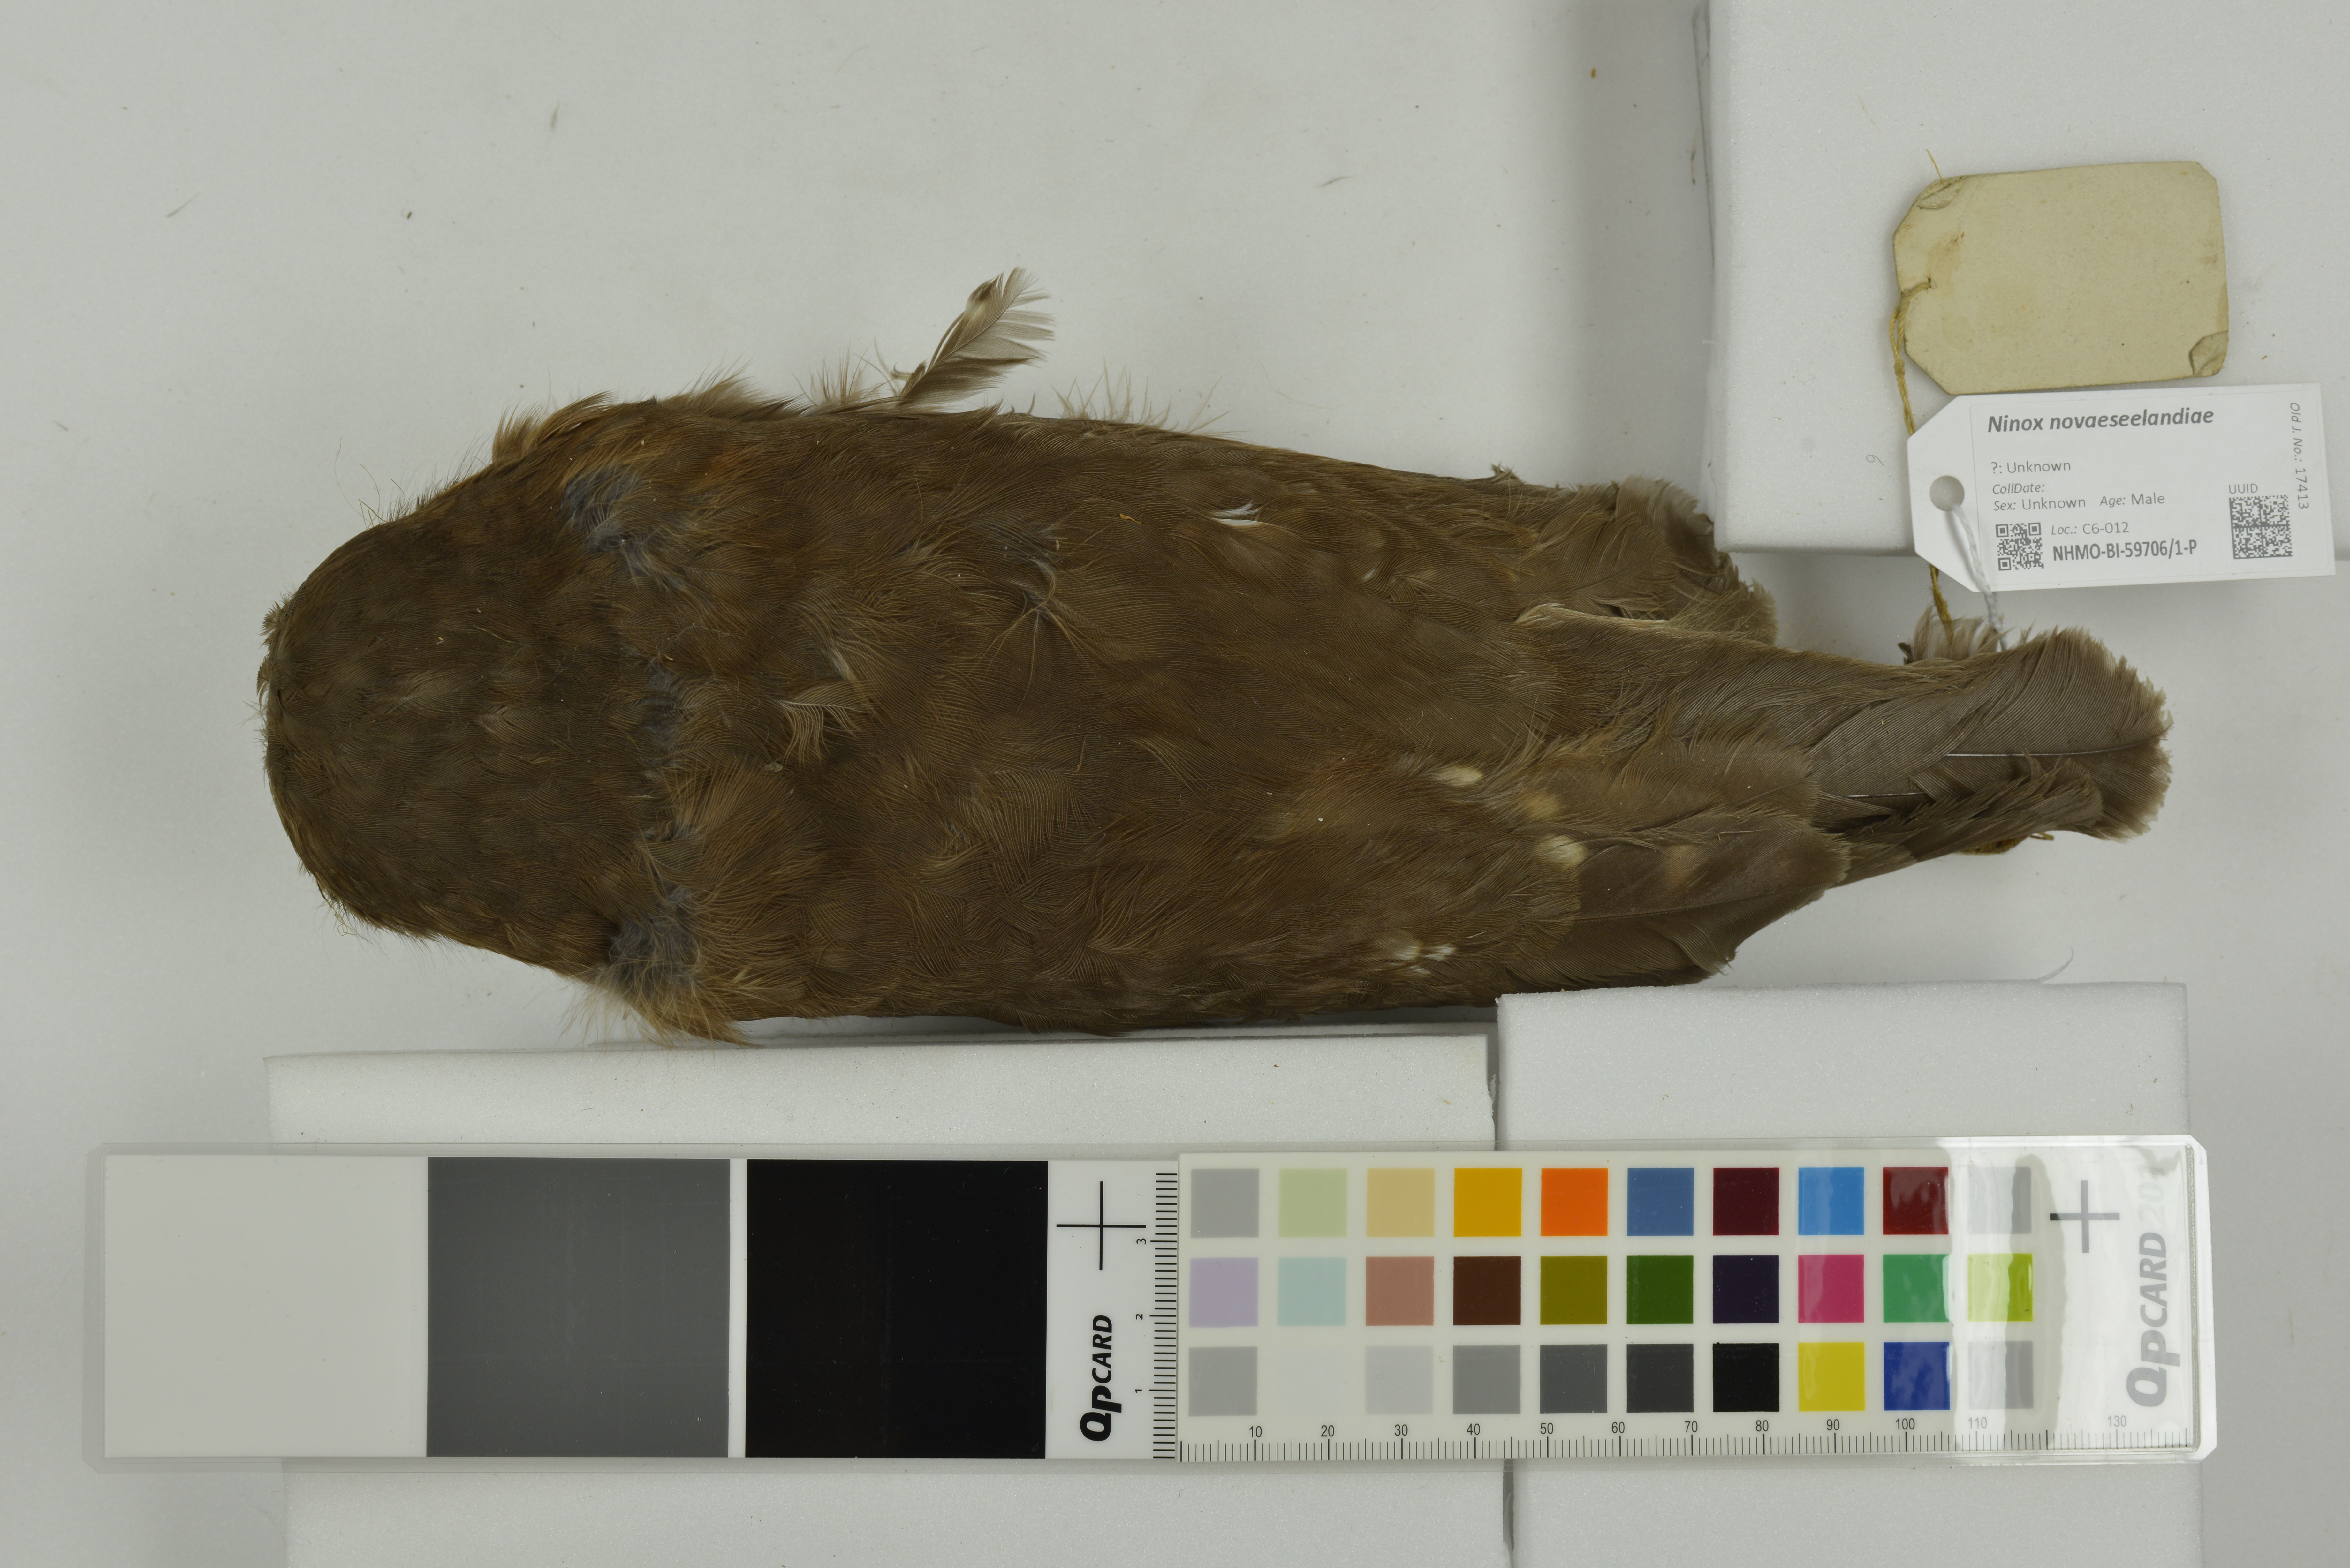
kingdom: Animalia
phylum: Chordata
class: Aves
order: Strigiformes
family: Strigidae
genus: Ninox
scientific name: Ninox novaeseelandiae
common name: Morepork
